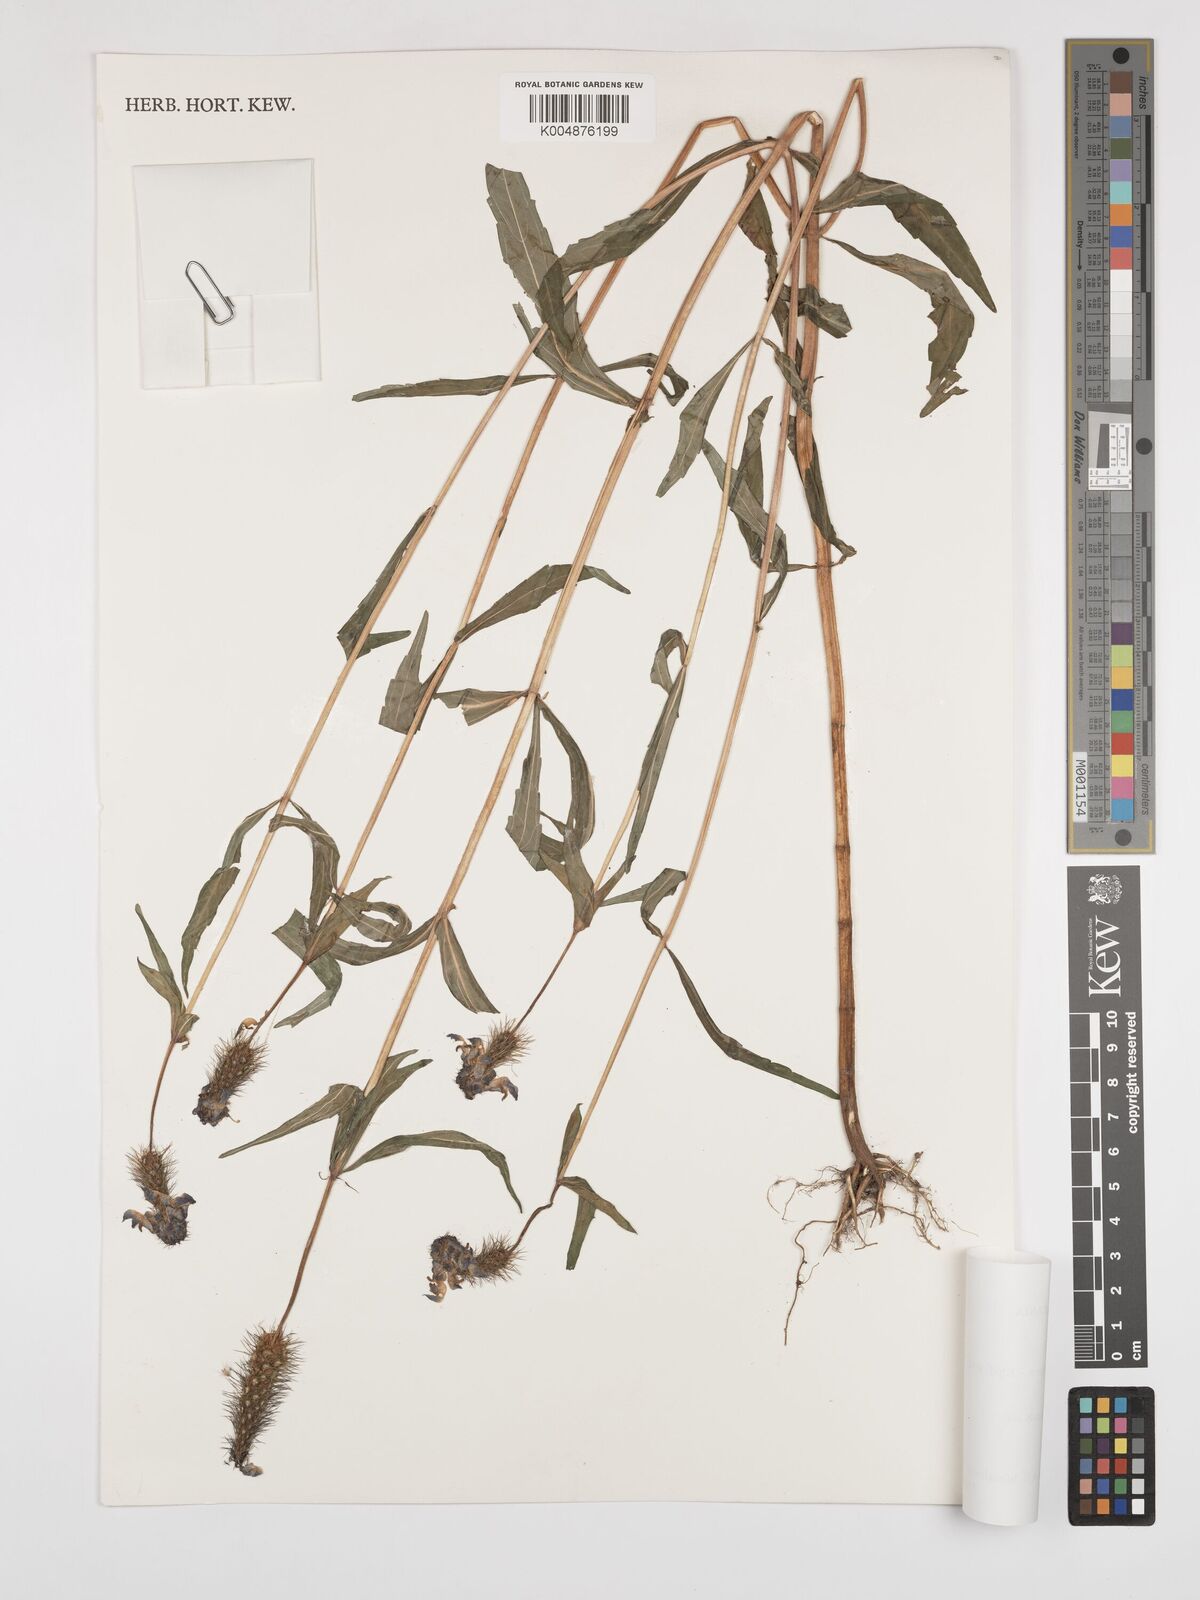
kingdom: Plantae
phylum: Tracheophyta
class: Magnoliopsida
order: Lamiales
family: Lamiaceae
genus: Coleus
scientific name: Coleus scruposus
